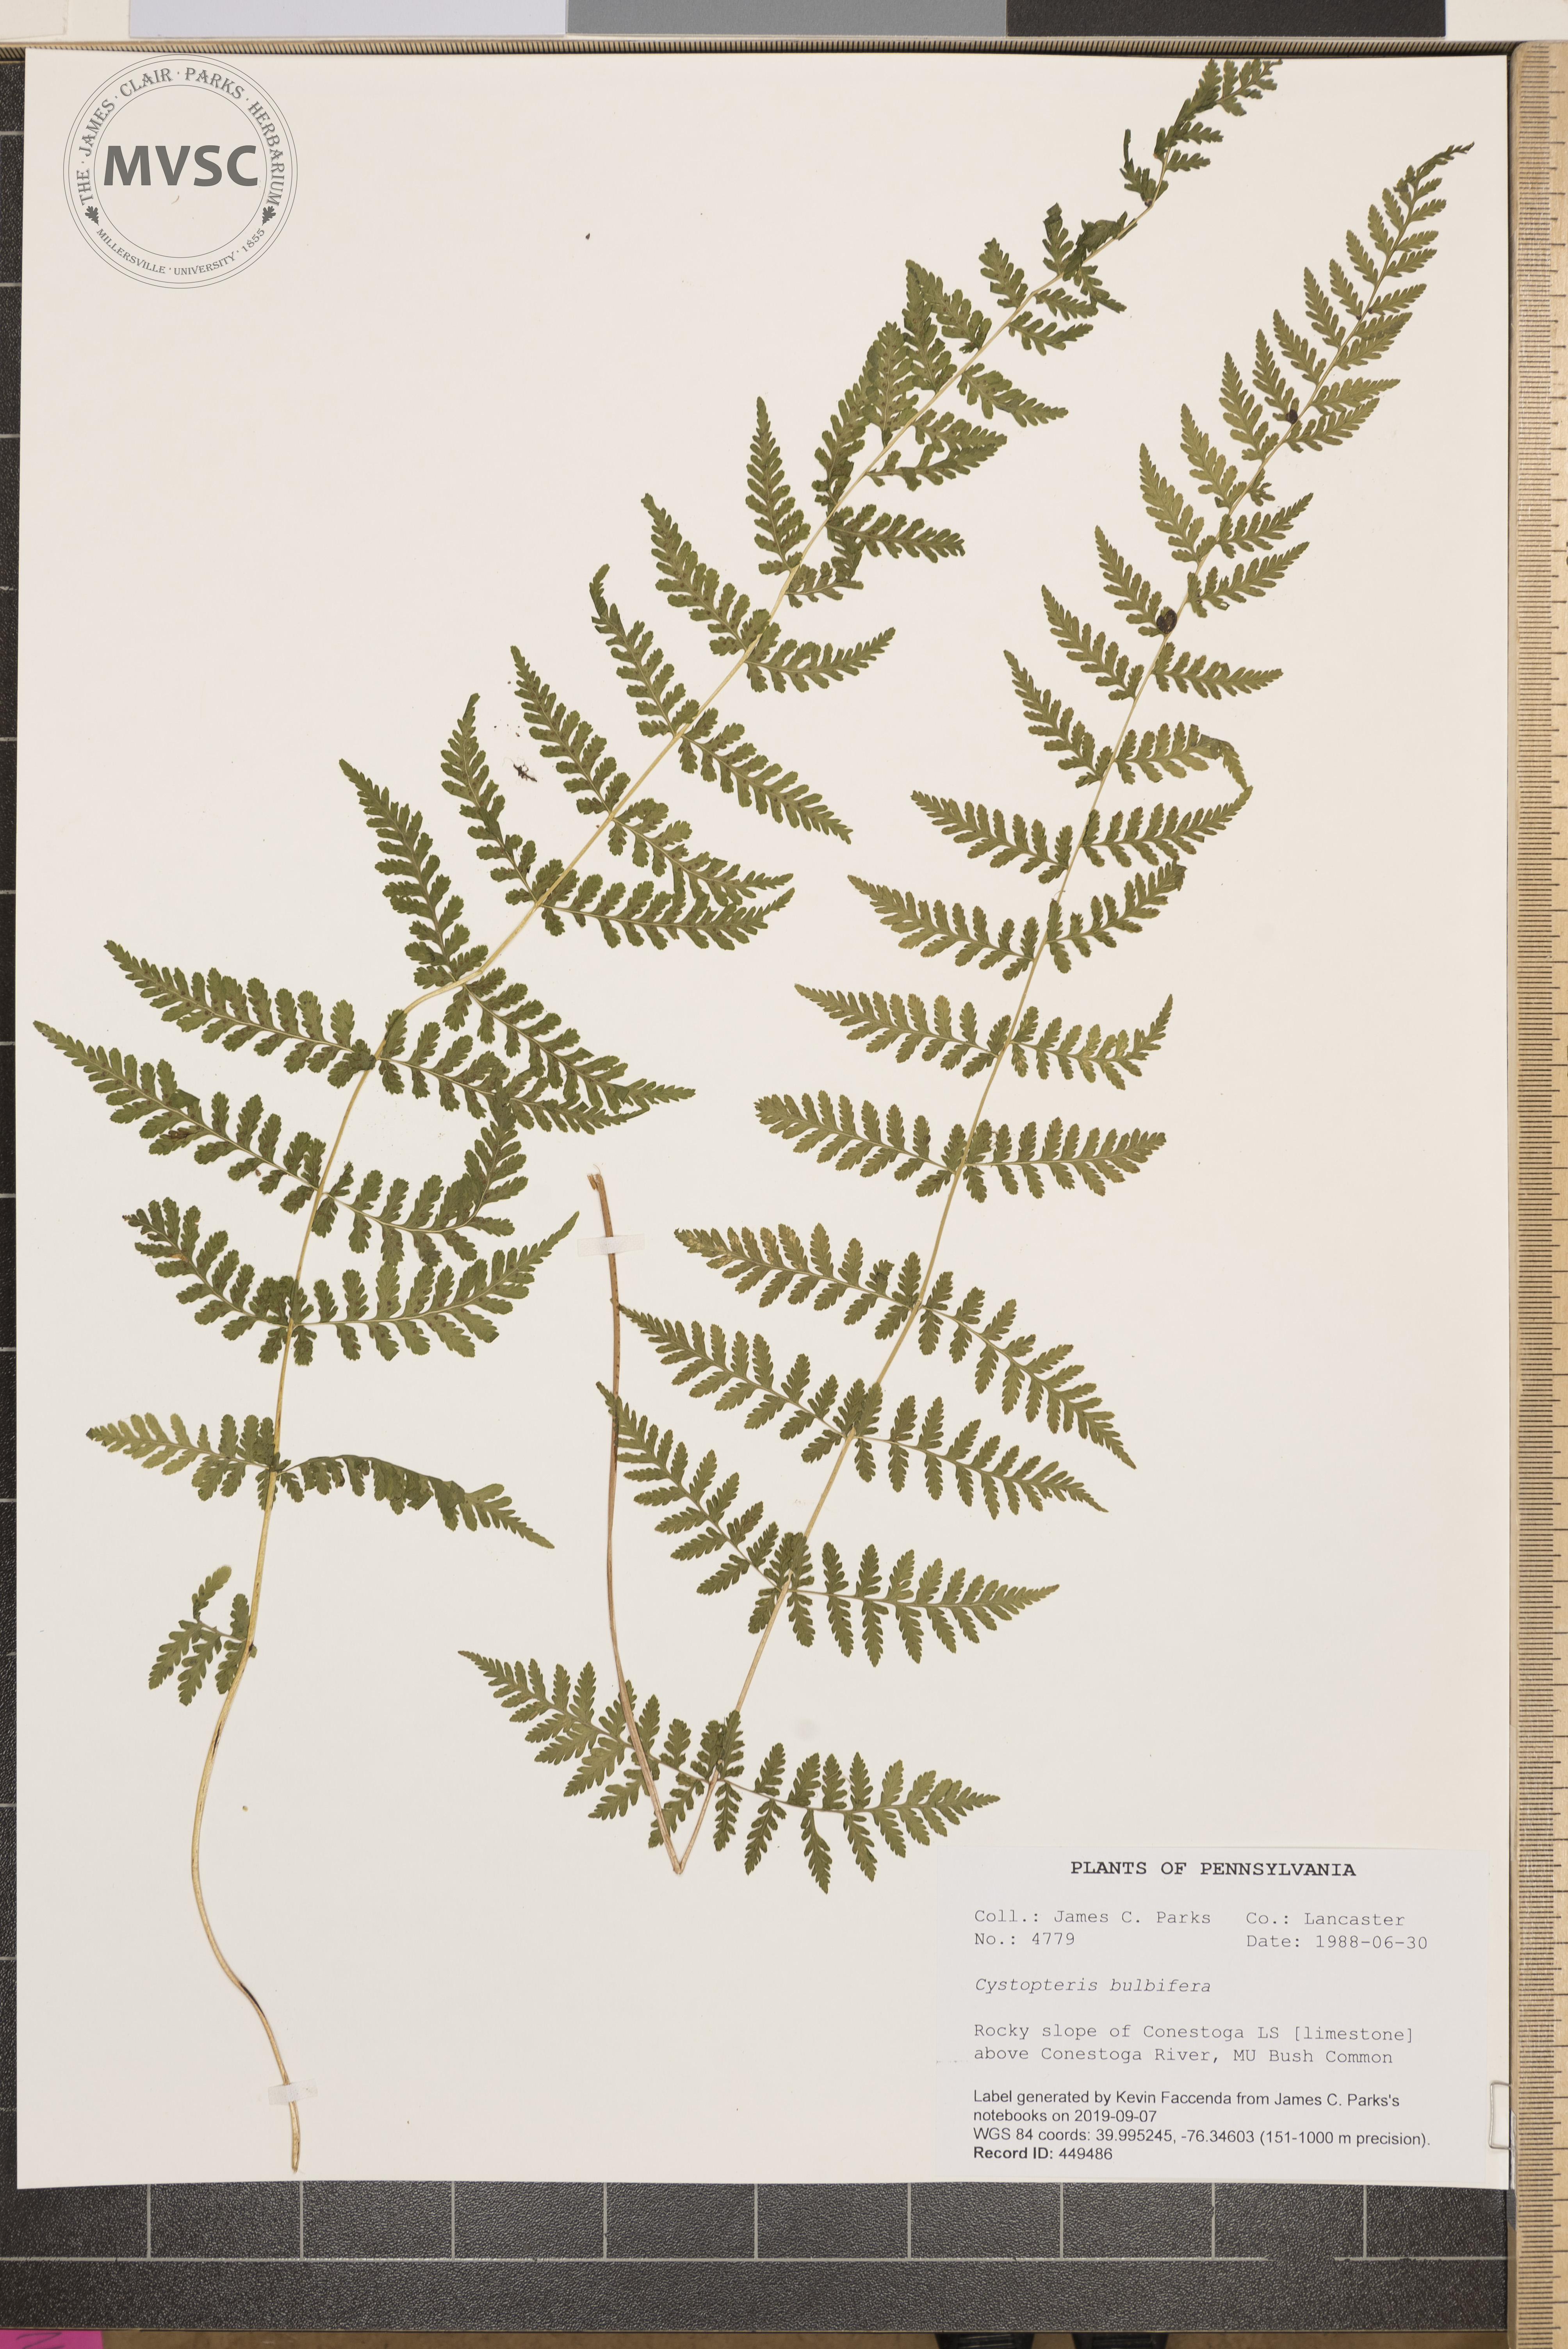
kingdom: Plantae
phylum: Tracheophyta
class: Polypodiopsida
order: Polypodiales
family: Cystopteridaceae
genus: Cystopteris
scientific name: Cystopteris bulbifera
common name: Bulblet bladder fern
